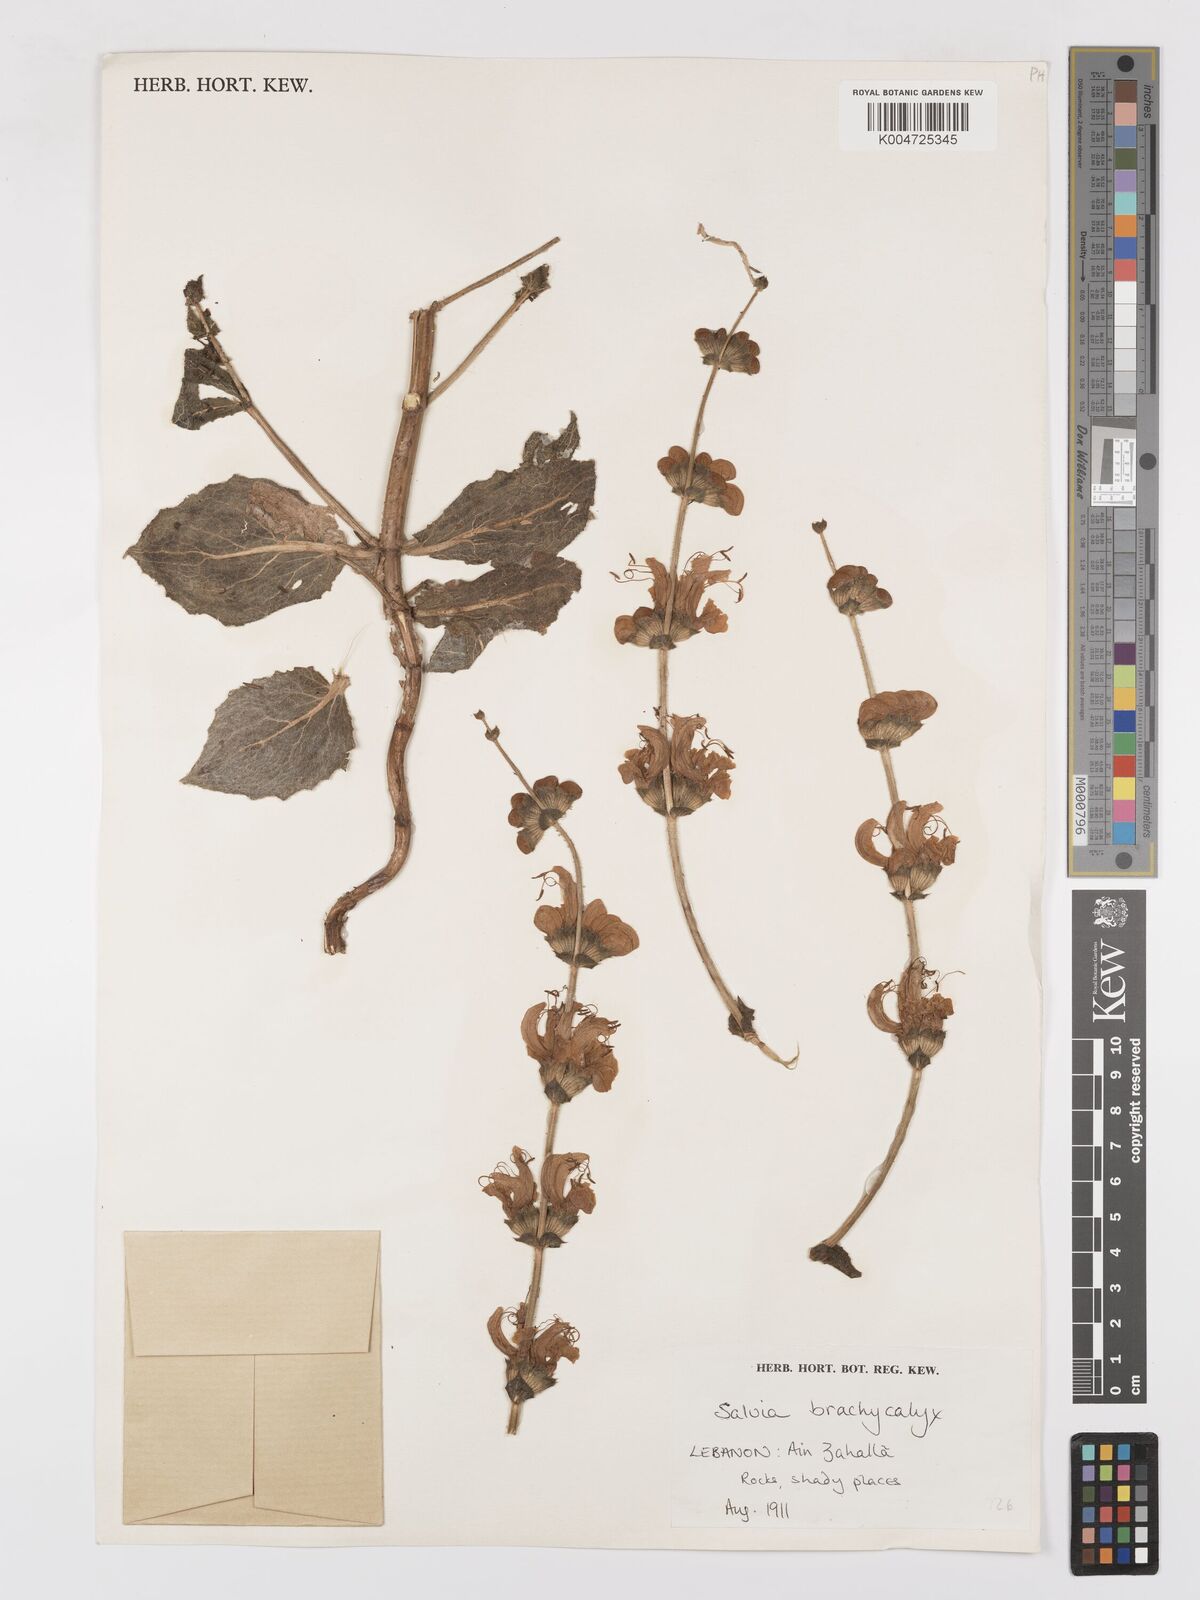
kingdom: Plantae
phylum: Tracheophyta
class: Magnoliopsida
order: Lamiales
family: Lamiaceae
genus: Salvia
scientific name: Salvia indica
